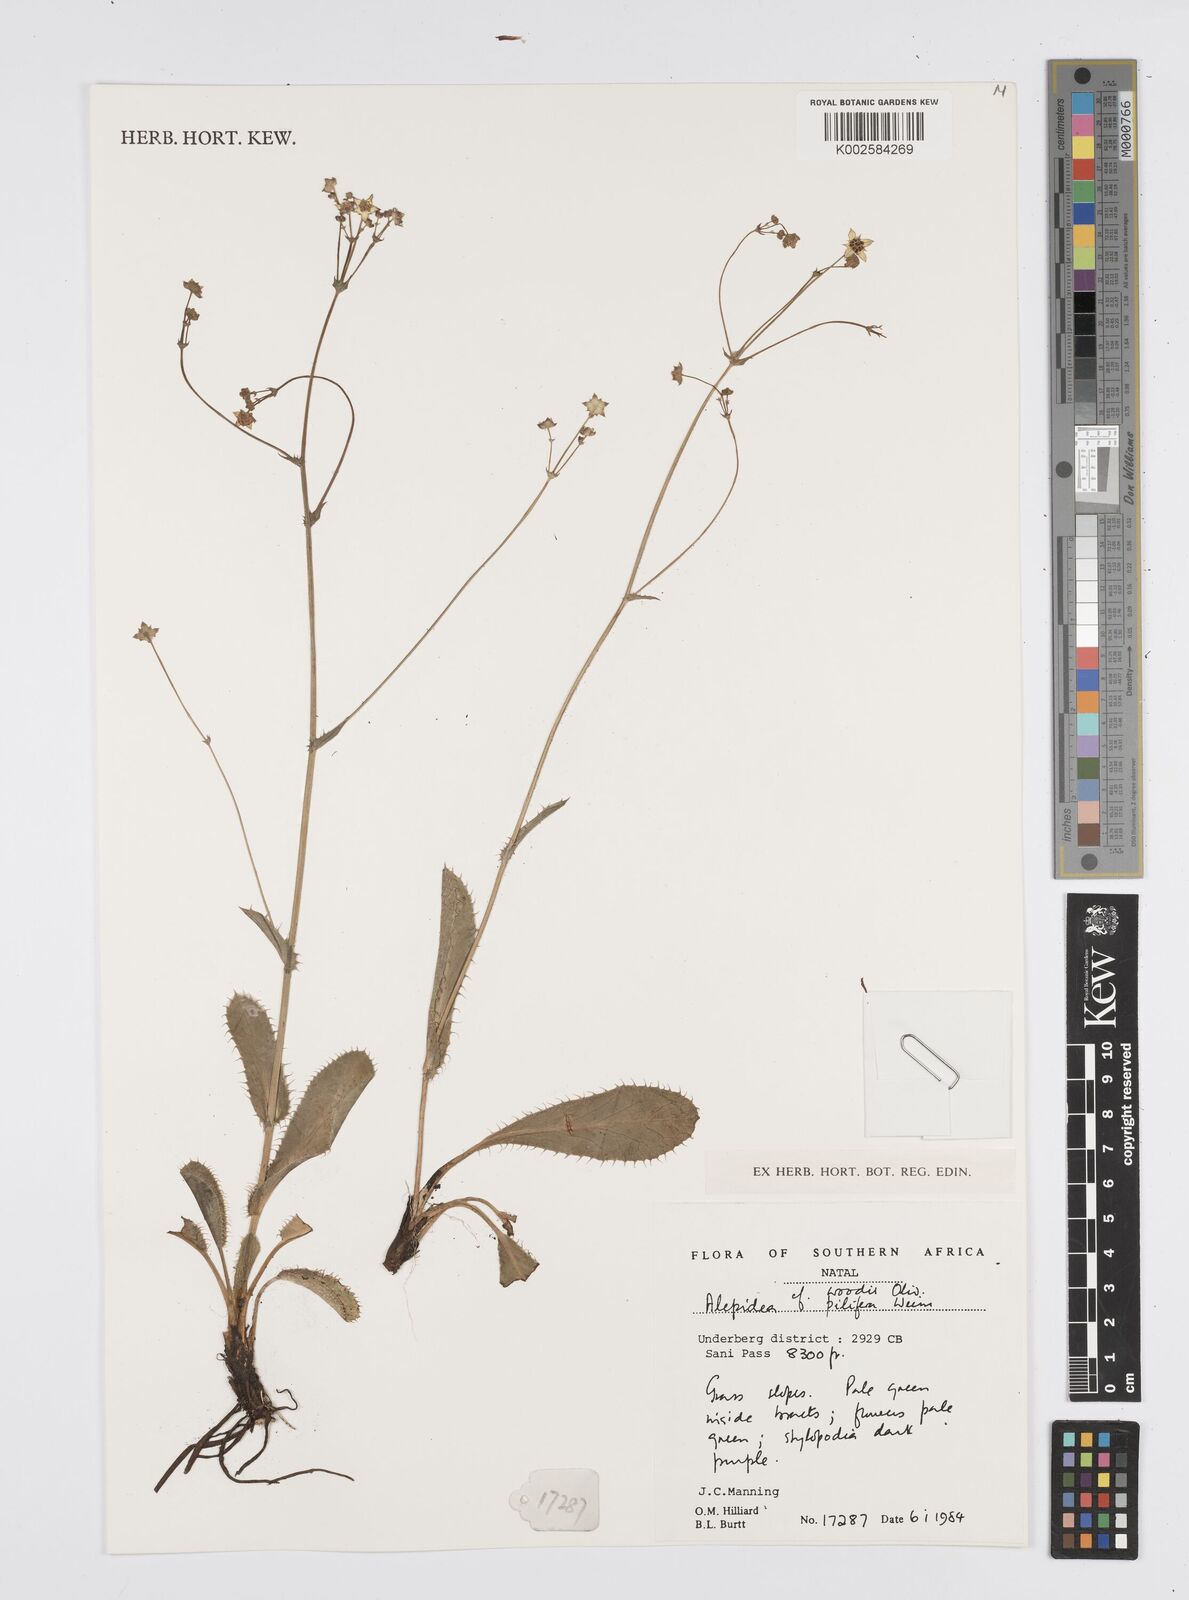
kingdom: Plantae
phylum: Tracheophyta
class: Magnoliopsida
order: Apiales
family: Apiaceae
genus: Alepidea
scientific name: Alepidea
